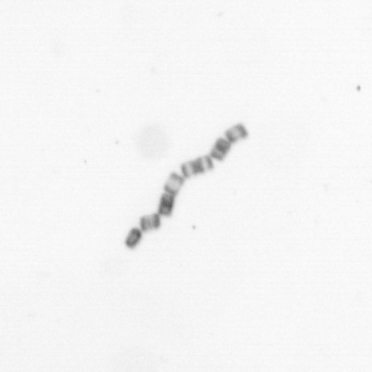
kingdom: Chromista
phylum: Ochrophyta
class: Bacillariophyceae
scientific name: Bacillariophyceae
